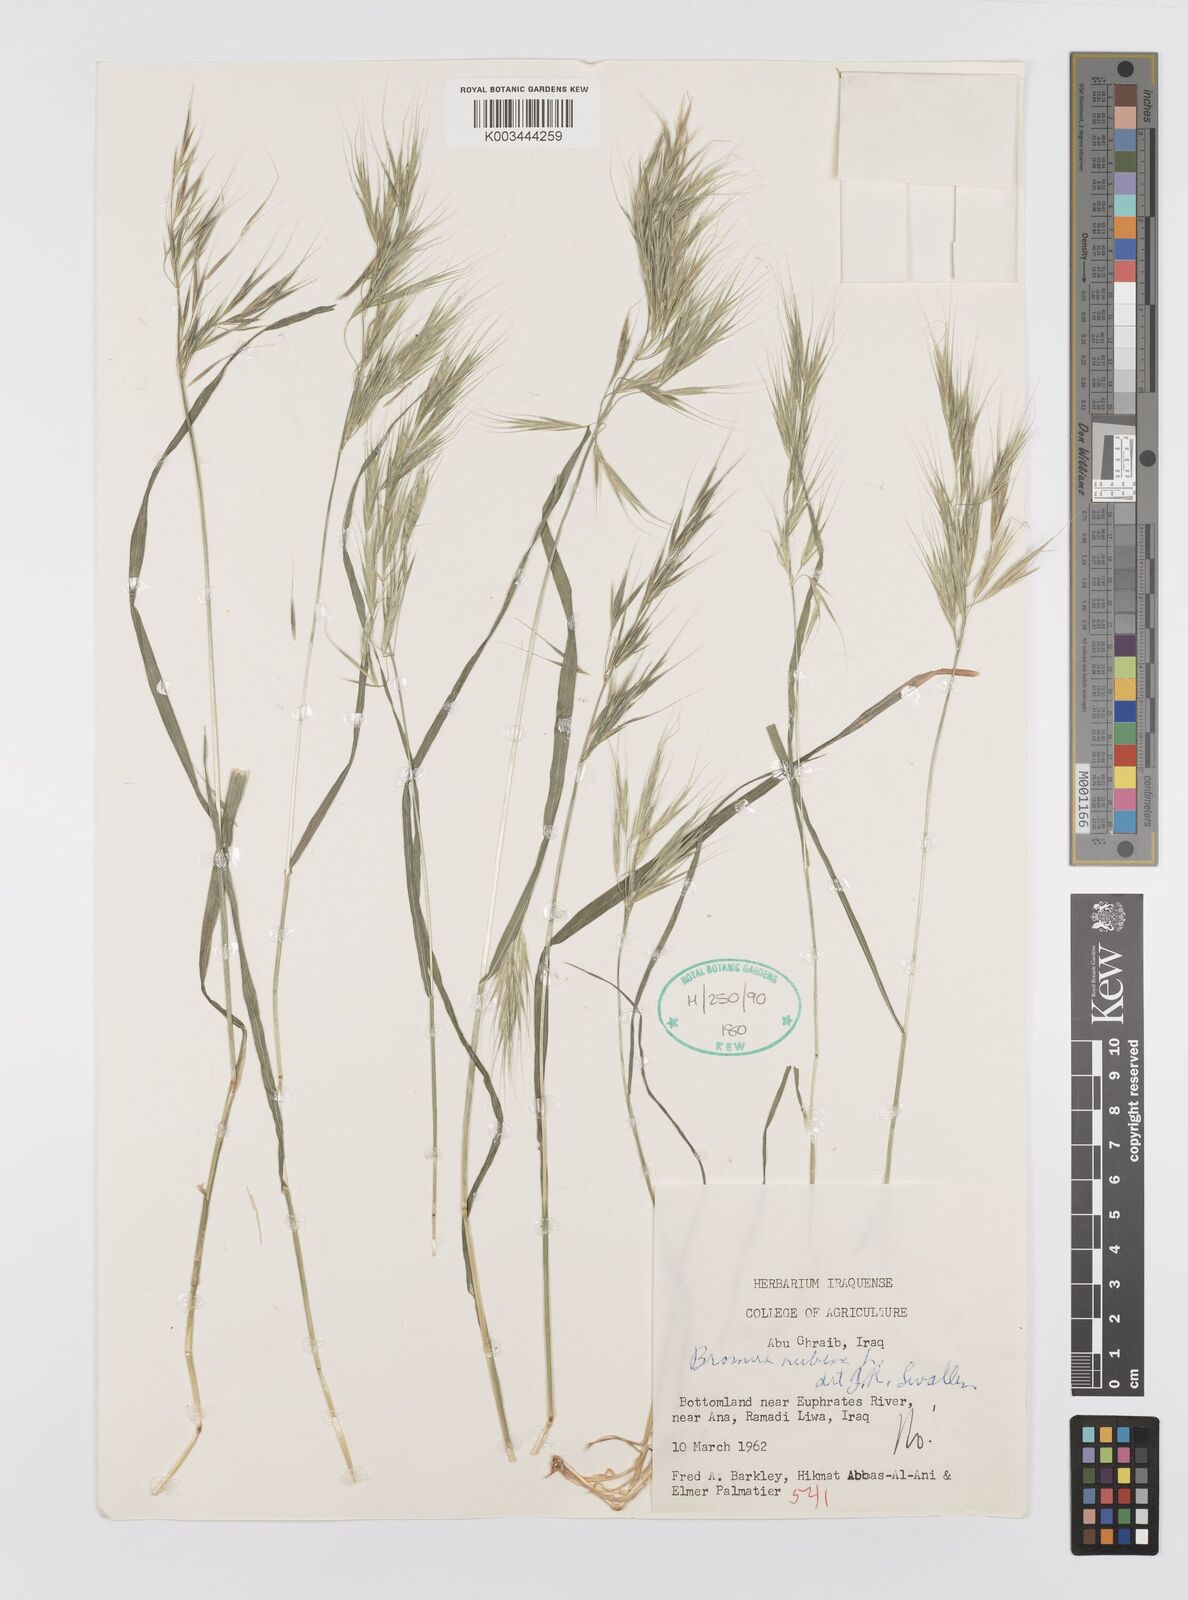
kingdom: Plantae
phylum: Tracheophyta
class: Liliopsida
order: Poales
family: Poaceae
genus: Bromus
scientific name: Bromus madritensis
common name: Compact brome
